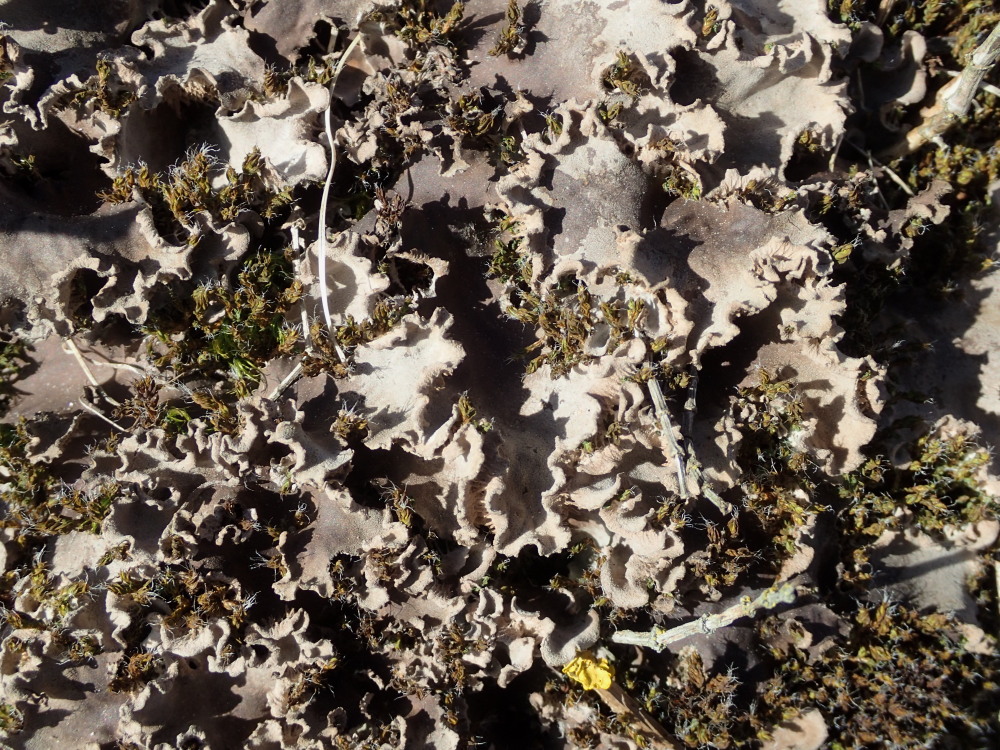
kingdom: Fungi
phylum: Ascomycota
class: Lecanoromycetes
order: Peltigerales
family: Peltigeraceae
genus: Peltigera
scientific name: Peltigera membranacea
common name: tynd skjoldlav
